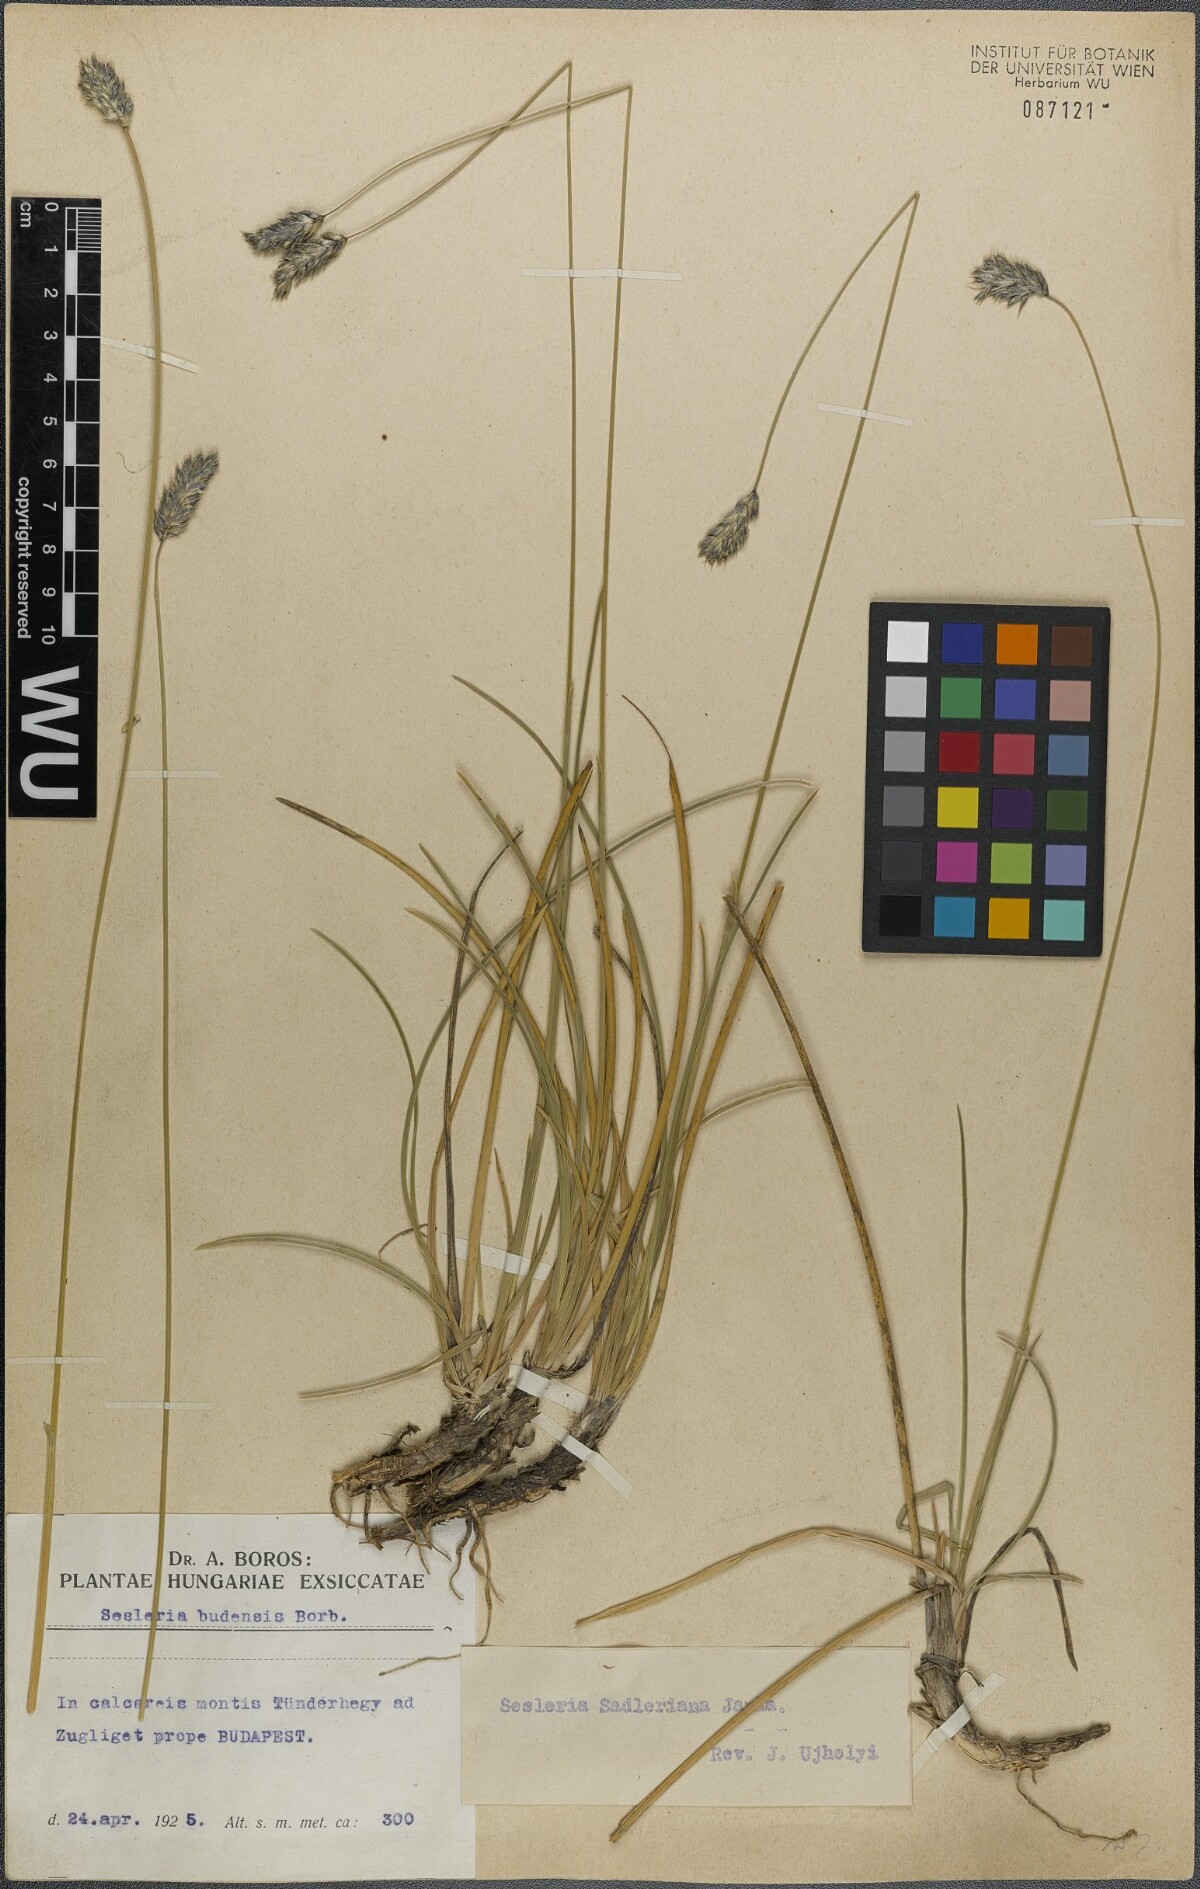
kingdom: Plantae
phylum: Tracheophyta
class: Liliopsida
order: Poales
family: Poaceae
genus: Sesleria
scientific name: Sesleria sadleriana
